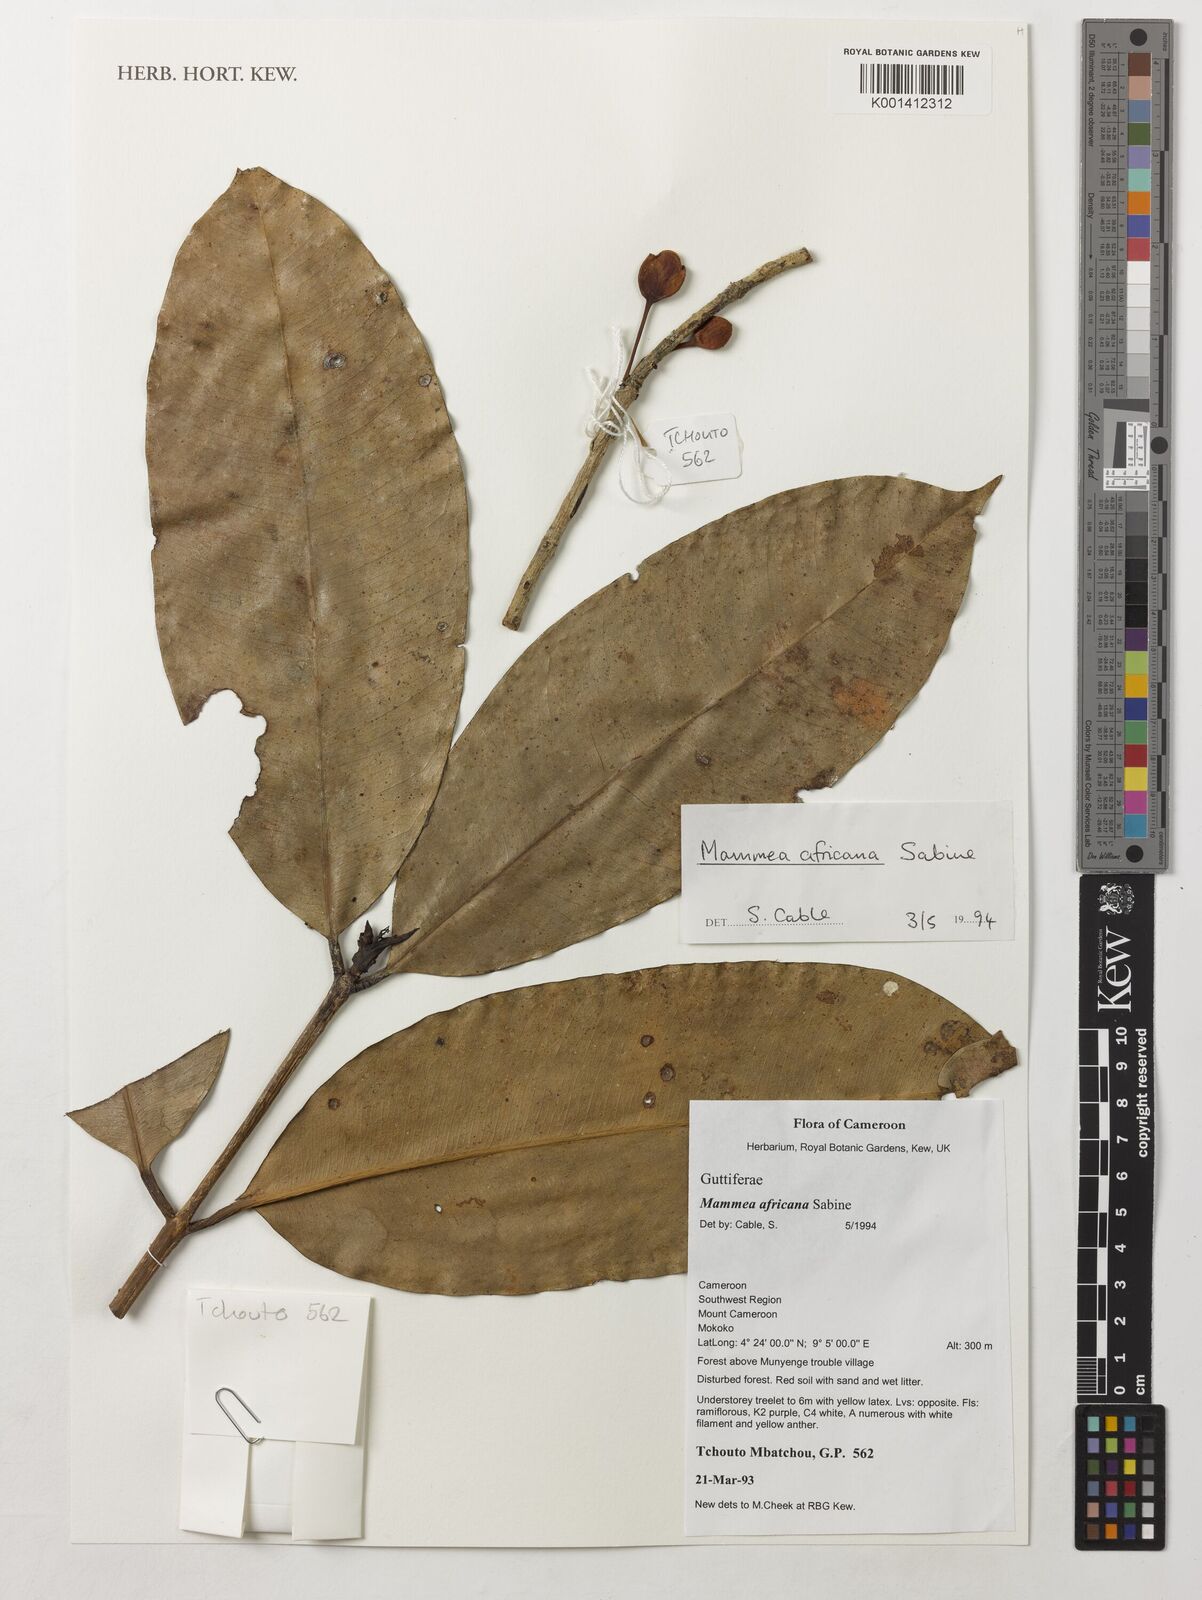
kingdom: Plantae
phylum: Tracheophyta
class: Magnoliopsida
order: Malpighiales
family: Calophyllaceae
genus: Mammea
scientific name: Mammea africana
